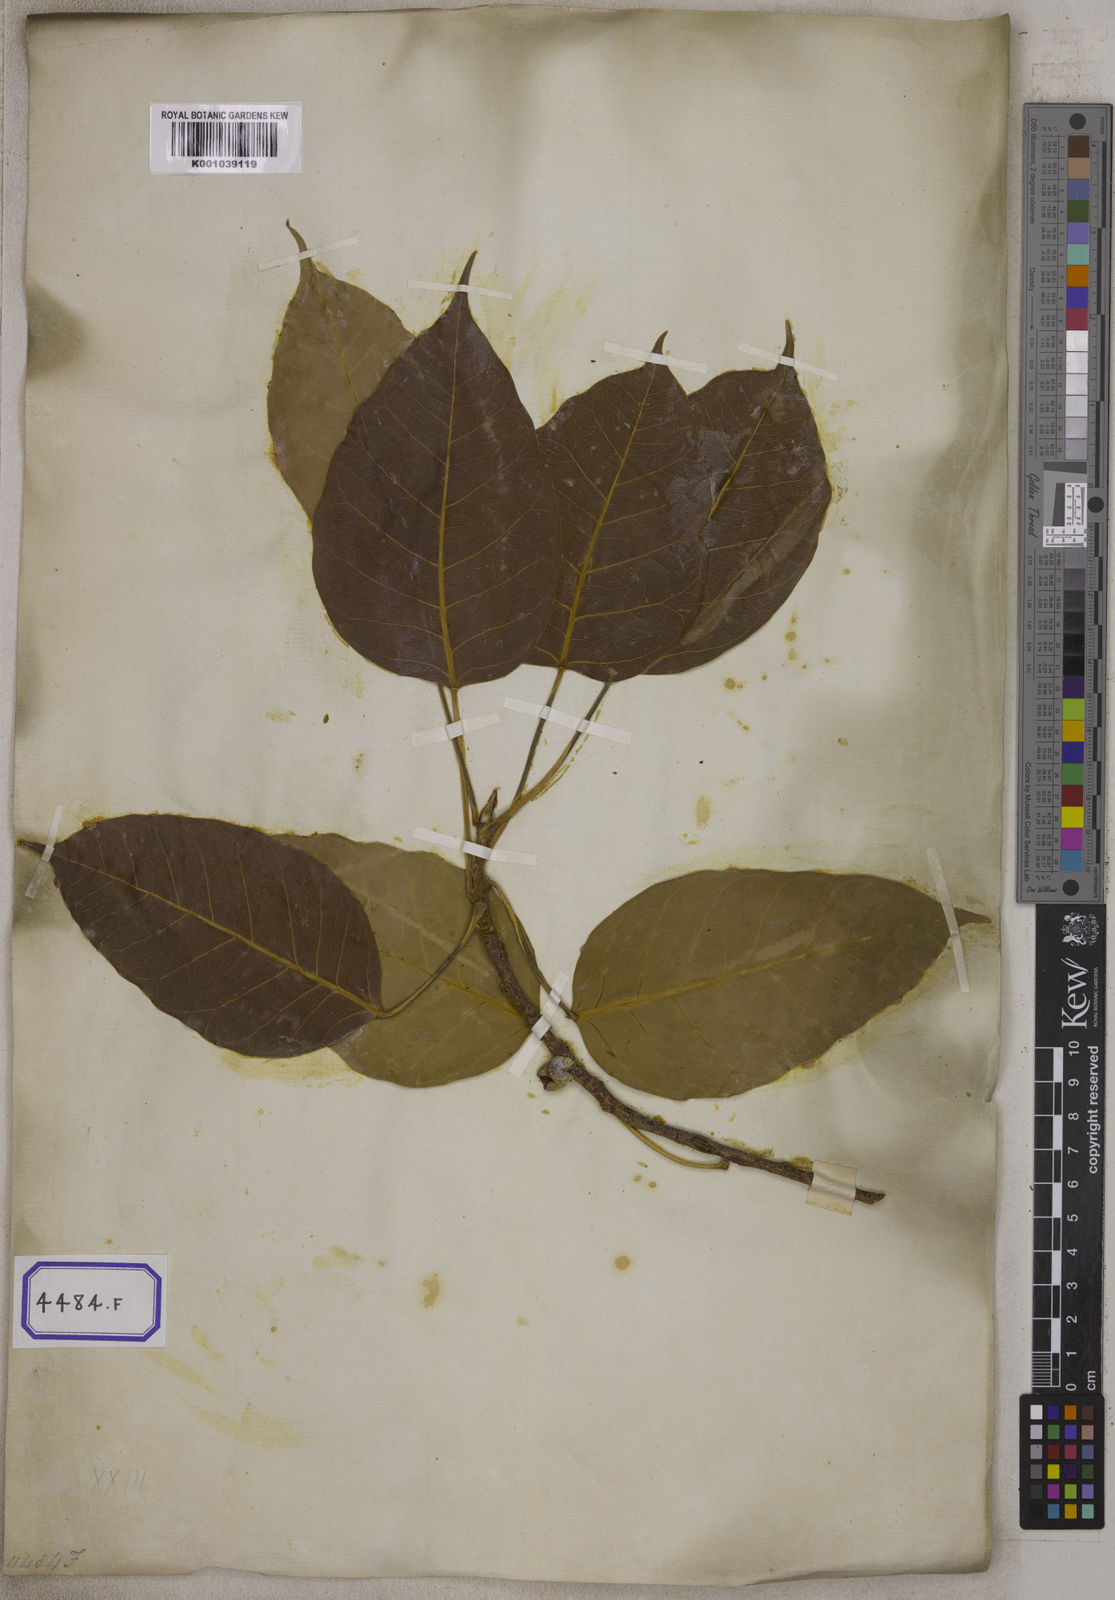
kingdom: Plantae
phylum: Tracheophyta
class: Magnoliopsida
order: Rosales
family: Moraceae
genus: Ficus
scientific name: Ficus rumphii
